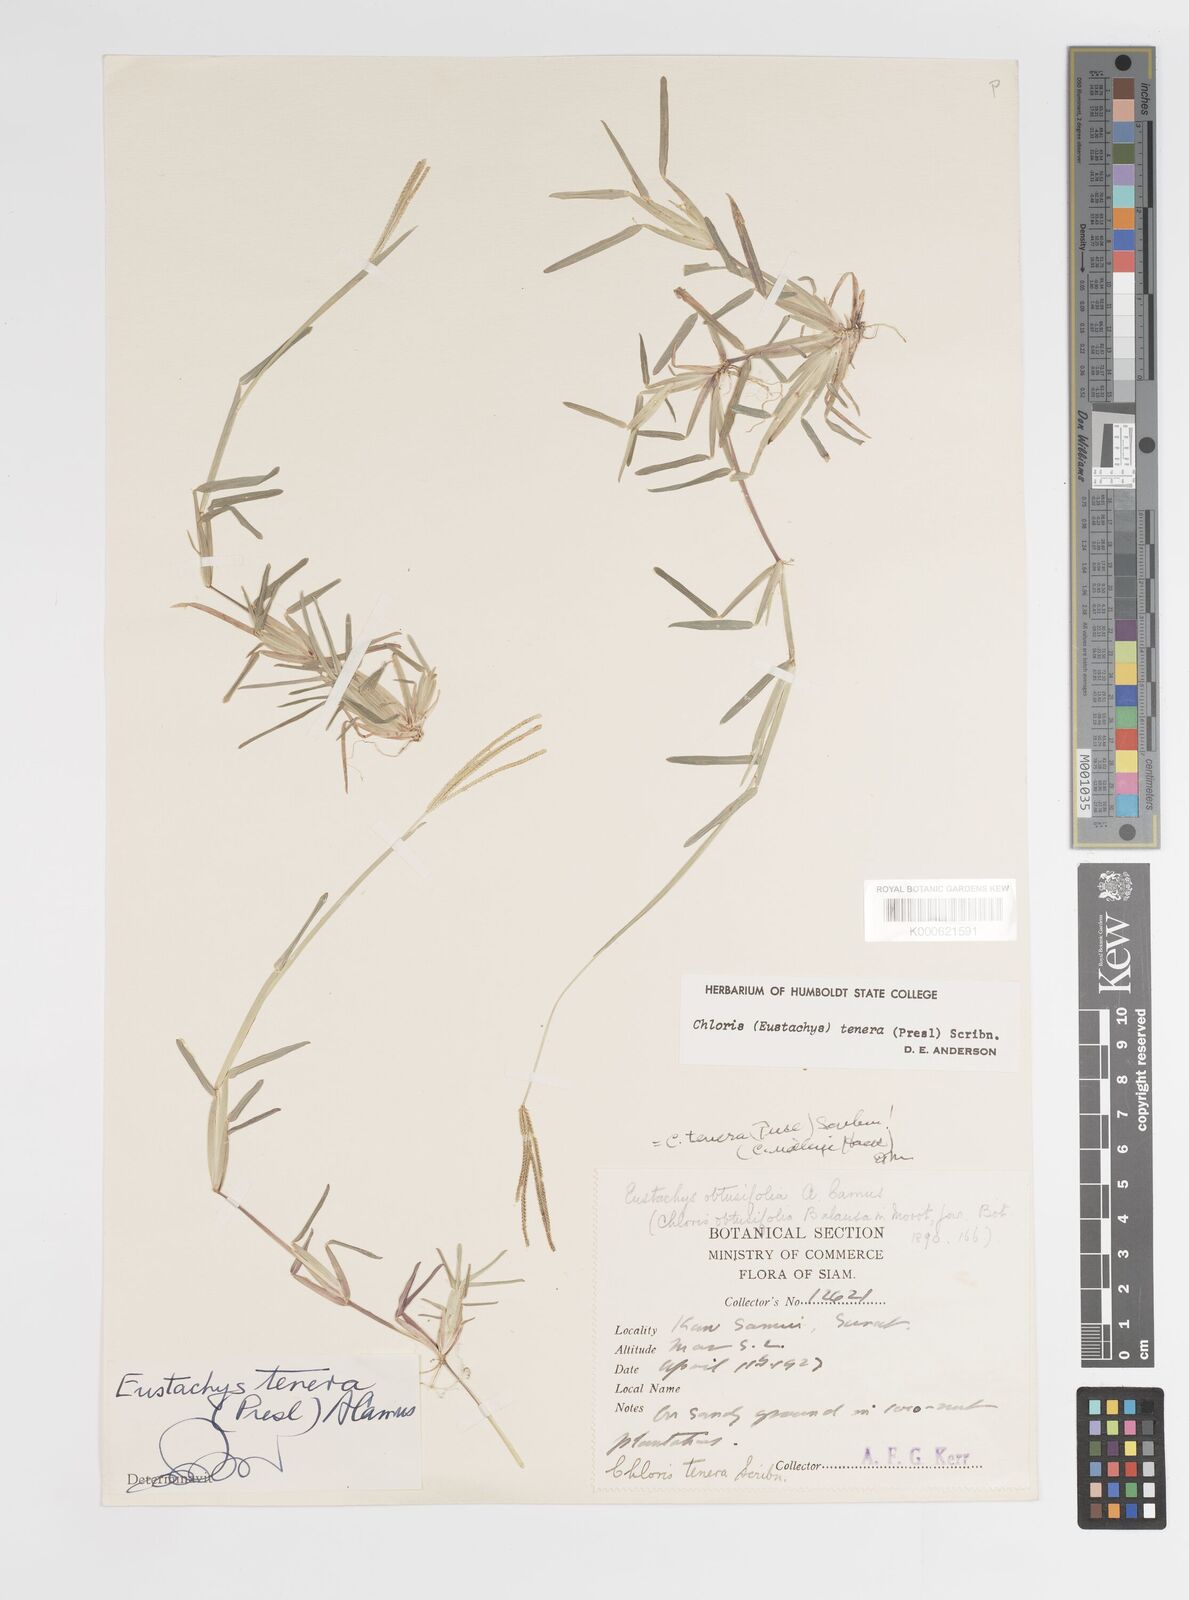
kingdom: Plantae
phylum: Tracheophyta
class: Liliopsida
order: Poales
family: Poaceae
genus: Eustachys
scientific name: Eustachys tenera
